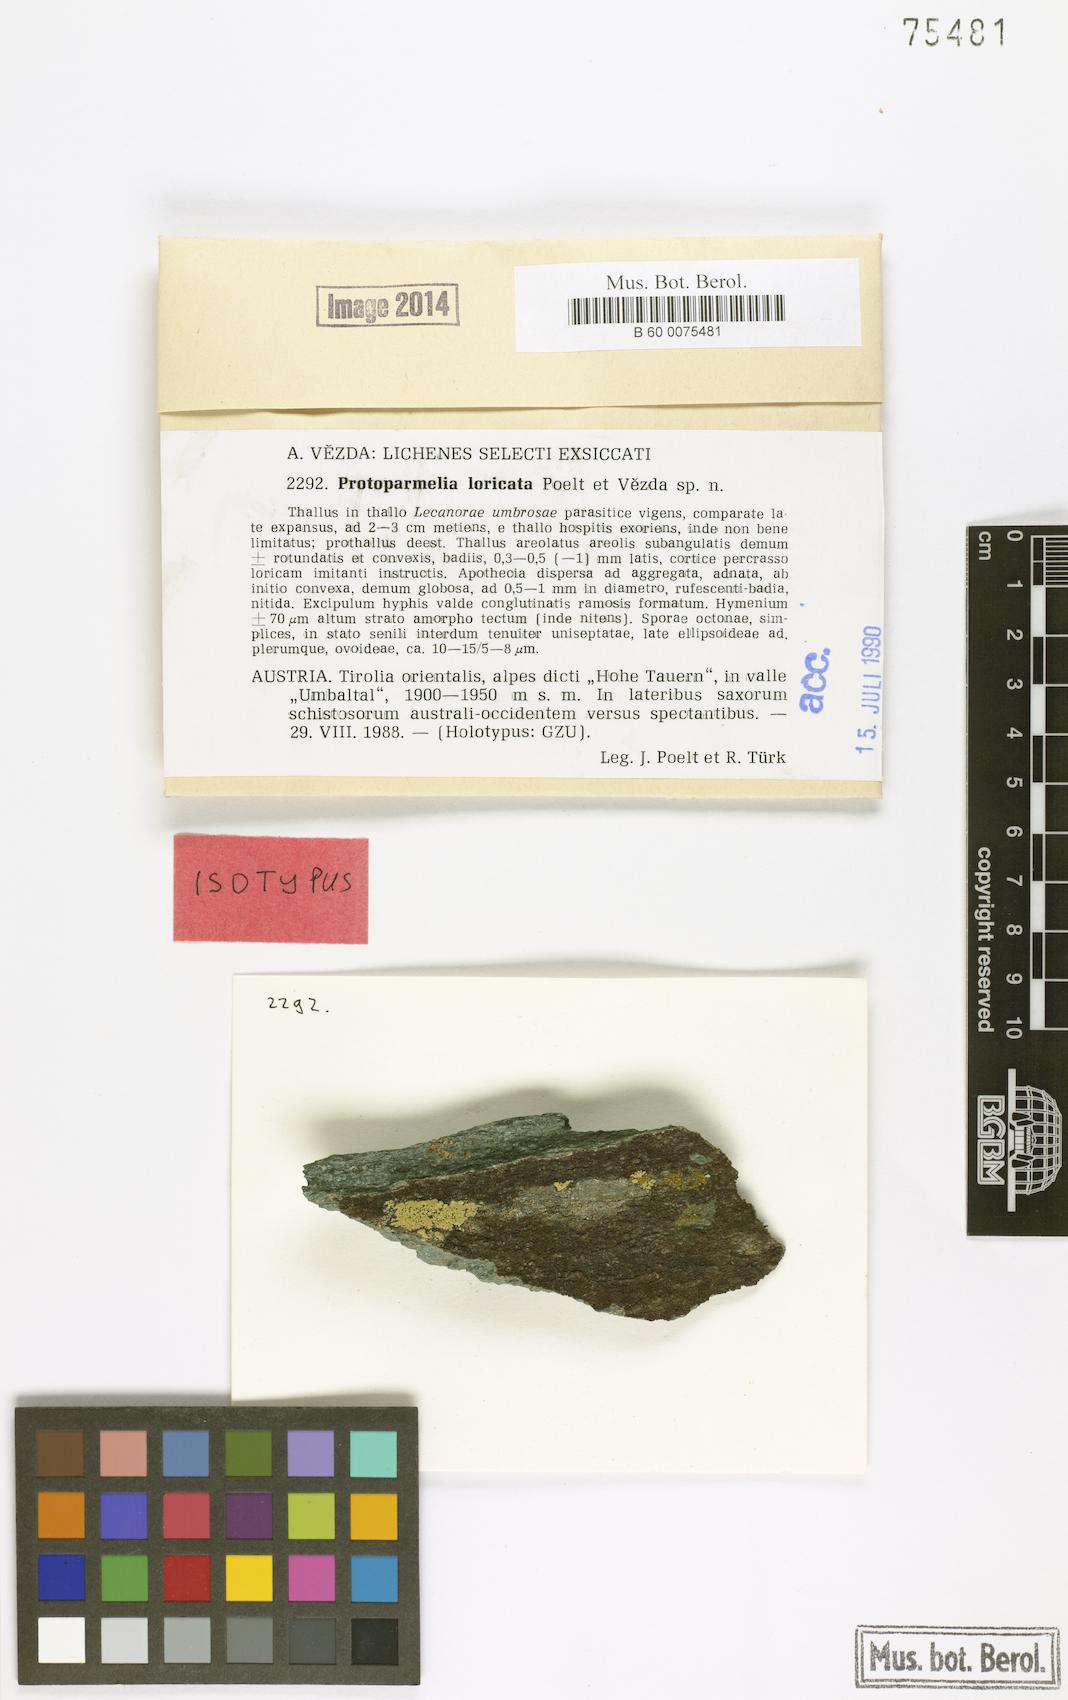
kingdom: Fungi
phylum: Ascomycota
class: Lecanoromycetes
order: Lecanorales
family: Parmeliaceae
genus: Protoparmelia
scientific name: Protoparmelia loricata
